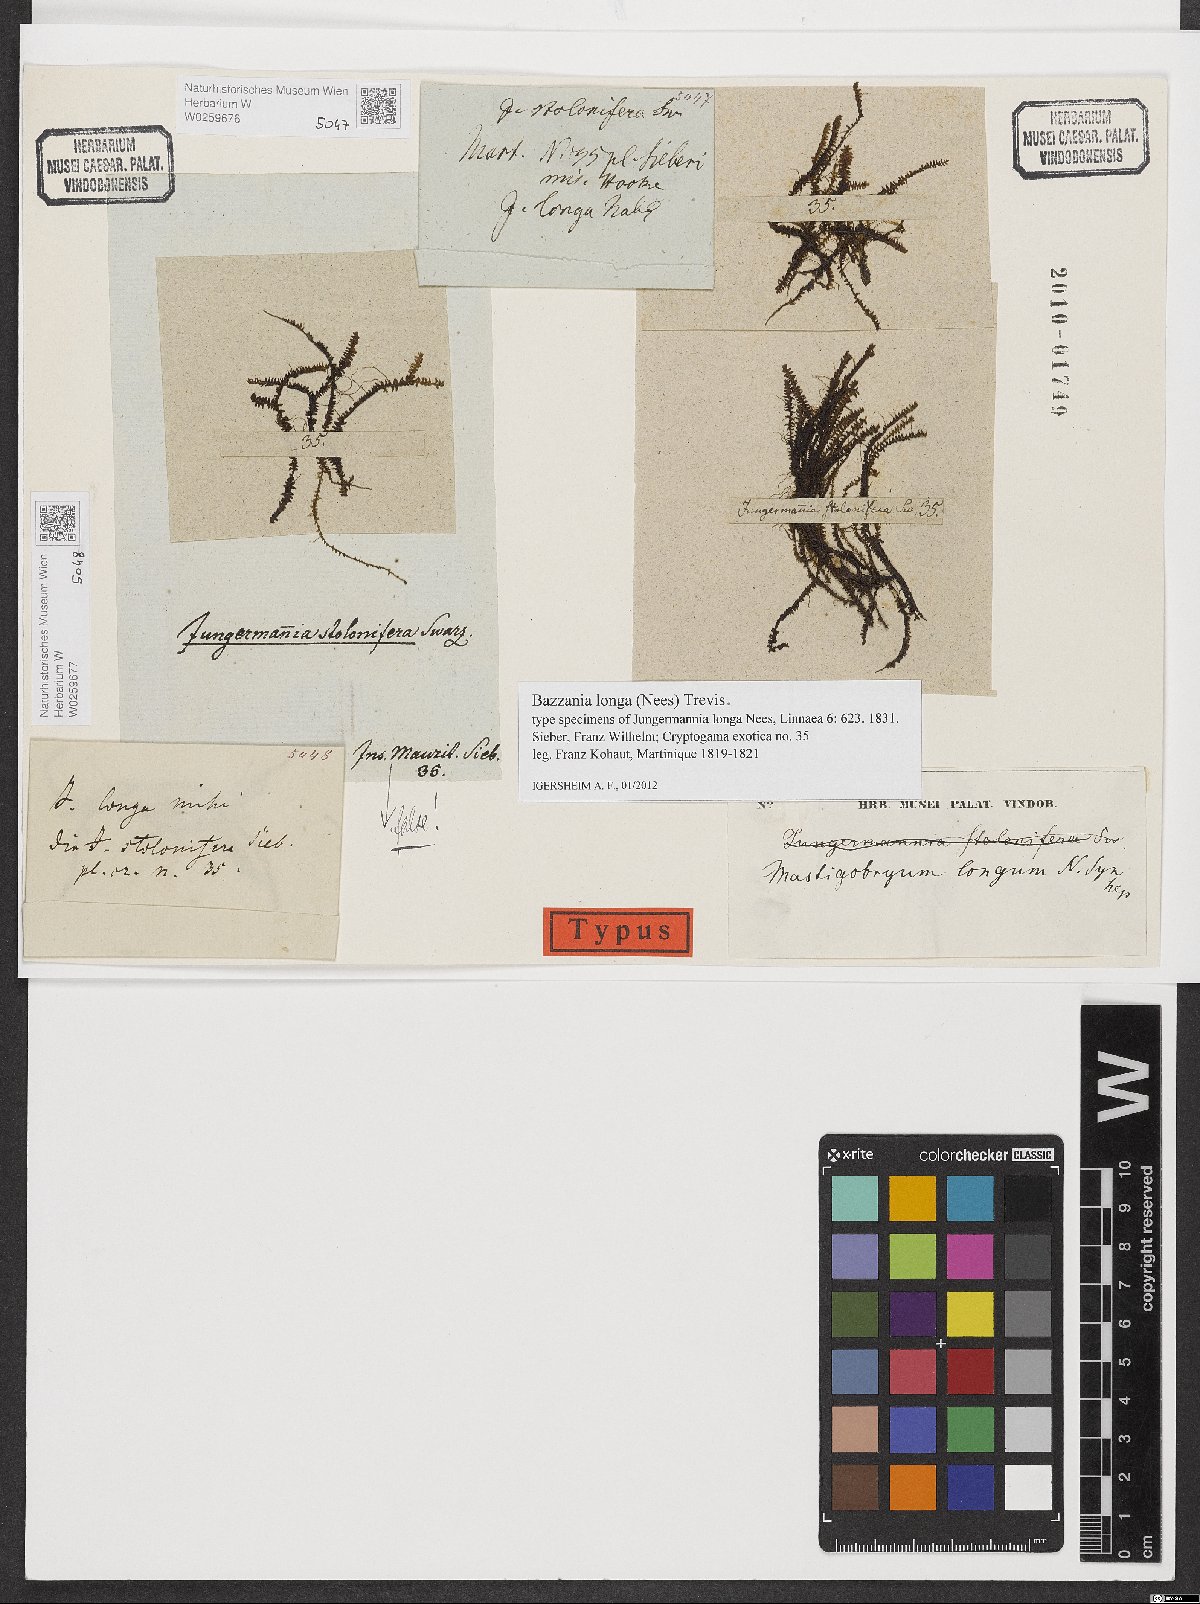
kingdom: Plantae
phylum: Marchantiophyta
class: Jungermanniopsida
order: Jungermanniales
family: Lepidoziaceae
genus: Bazzania
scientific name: Bazzania praerupta
